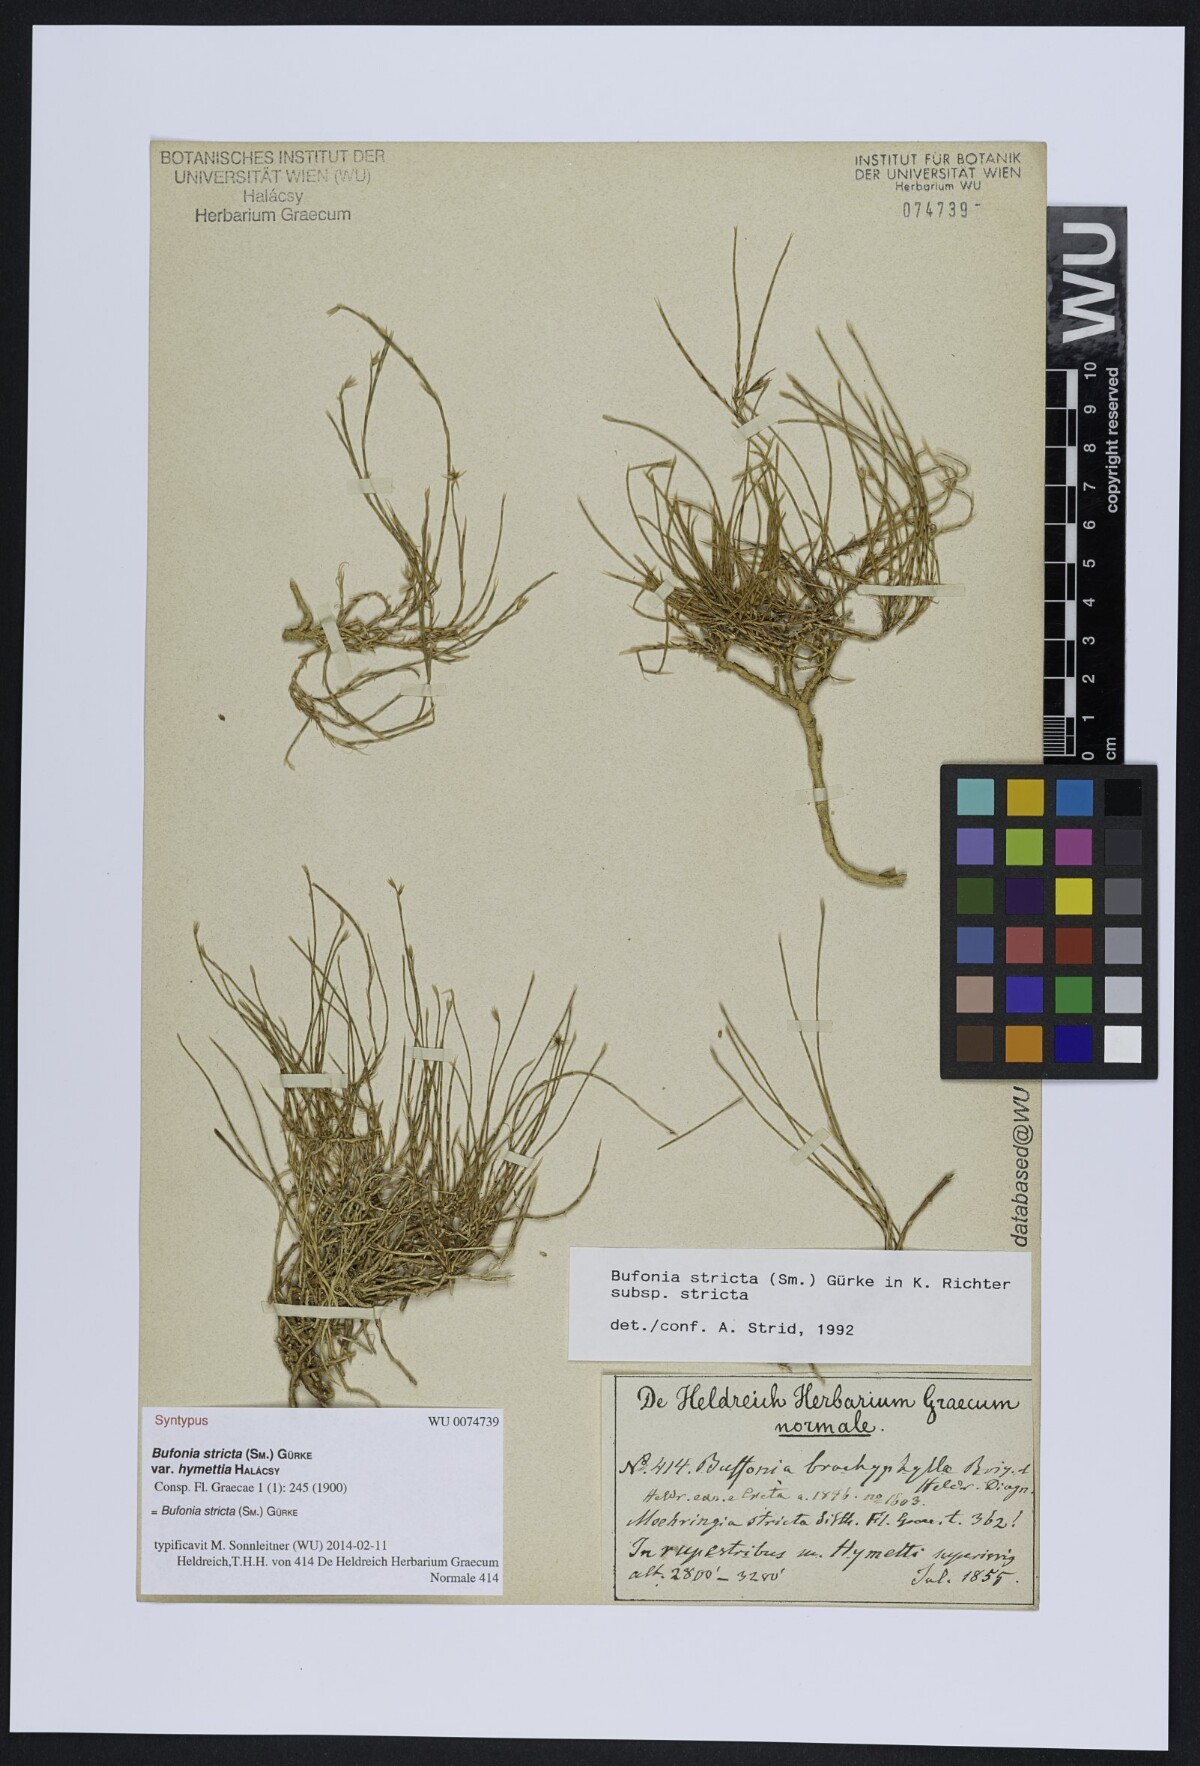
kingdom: Plantae
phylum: Tracheophyta
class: Magnoliopsida
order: Caryophyllales
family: Caryophyllaceae
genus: Bufonia
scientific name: Bufonia stricta
